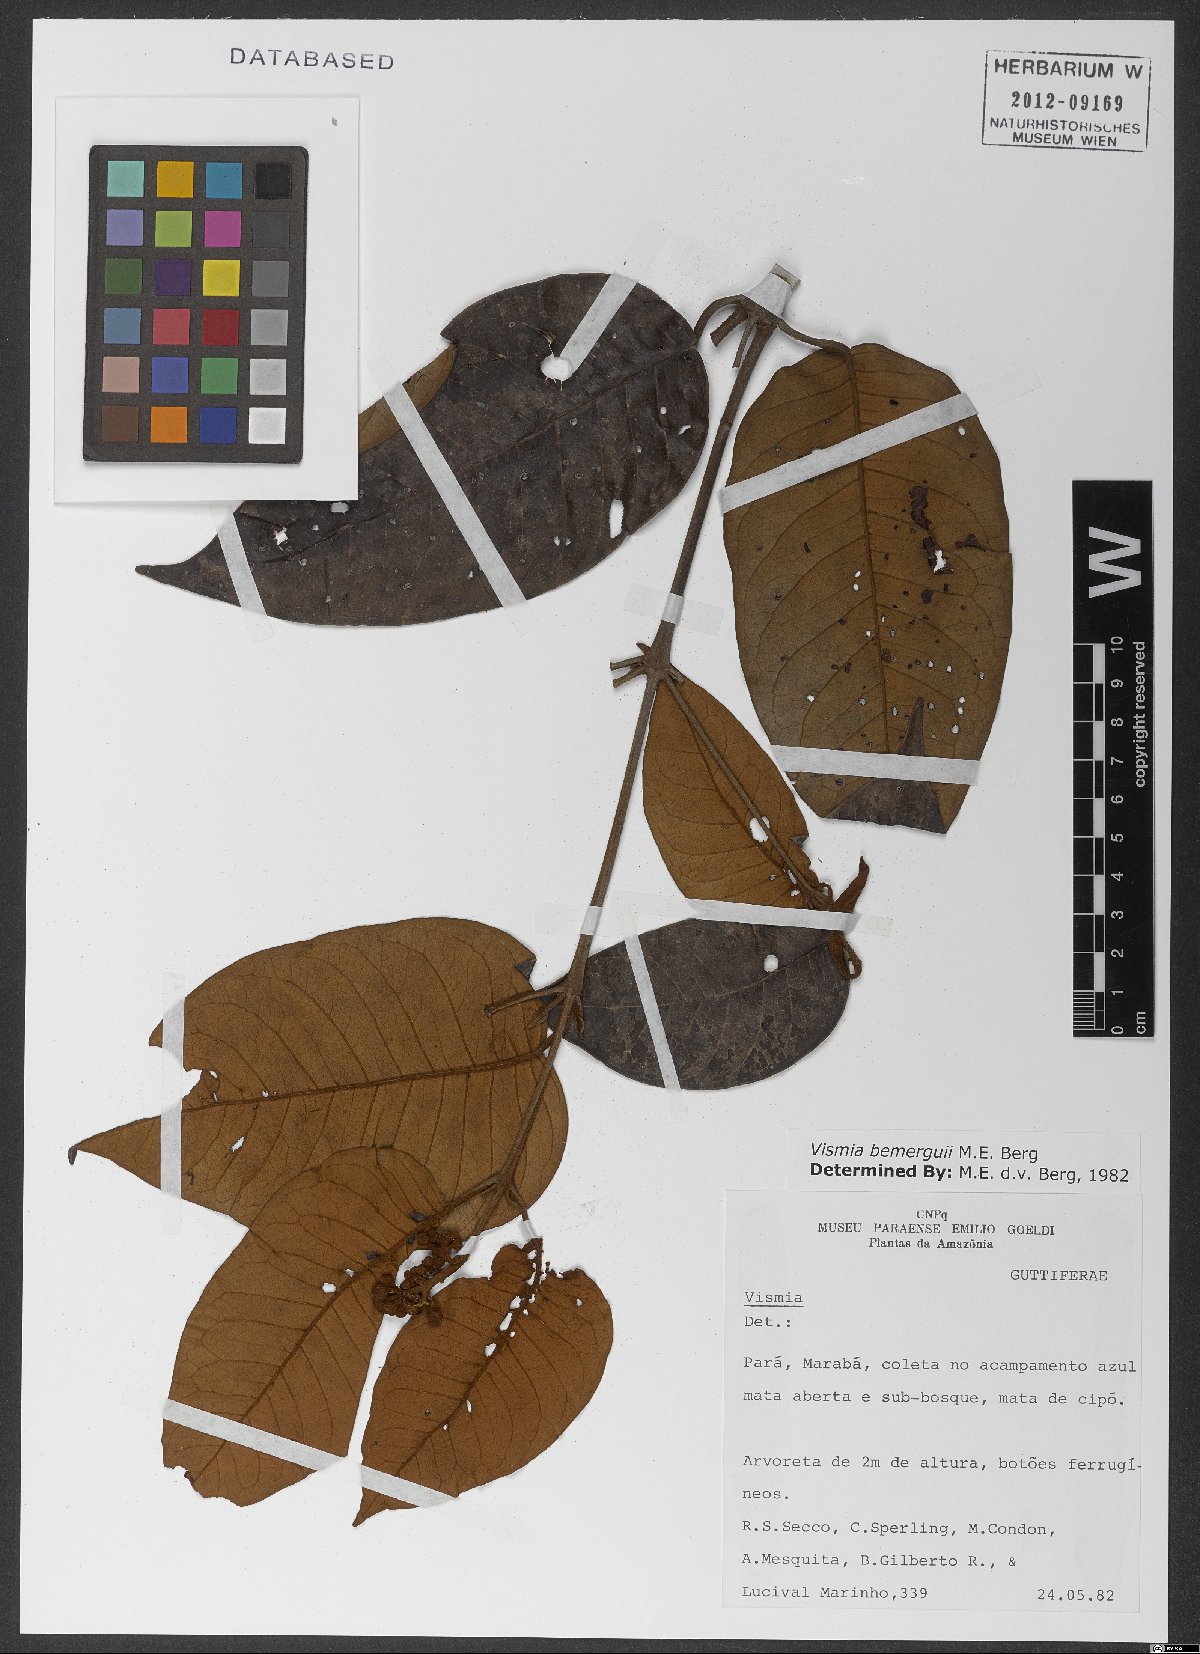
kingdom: Plantae
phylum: Tracheophyta
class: Magnoliopsida
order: Malpighiales
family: Hypericaceae
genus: Vismia
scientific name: Vismia bemerguii
